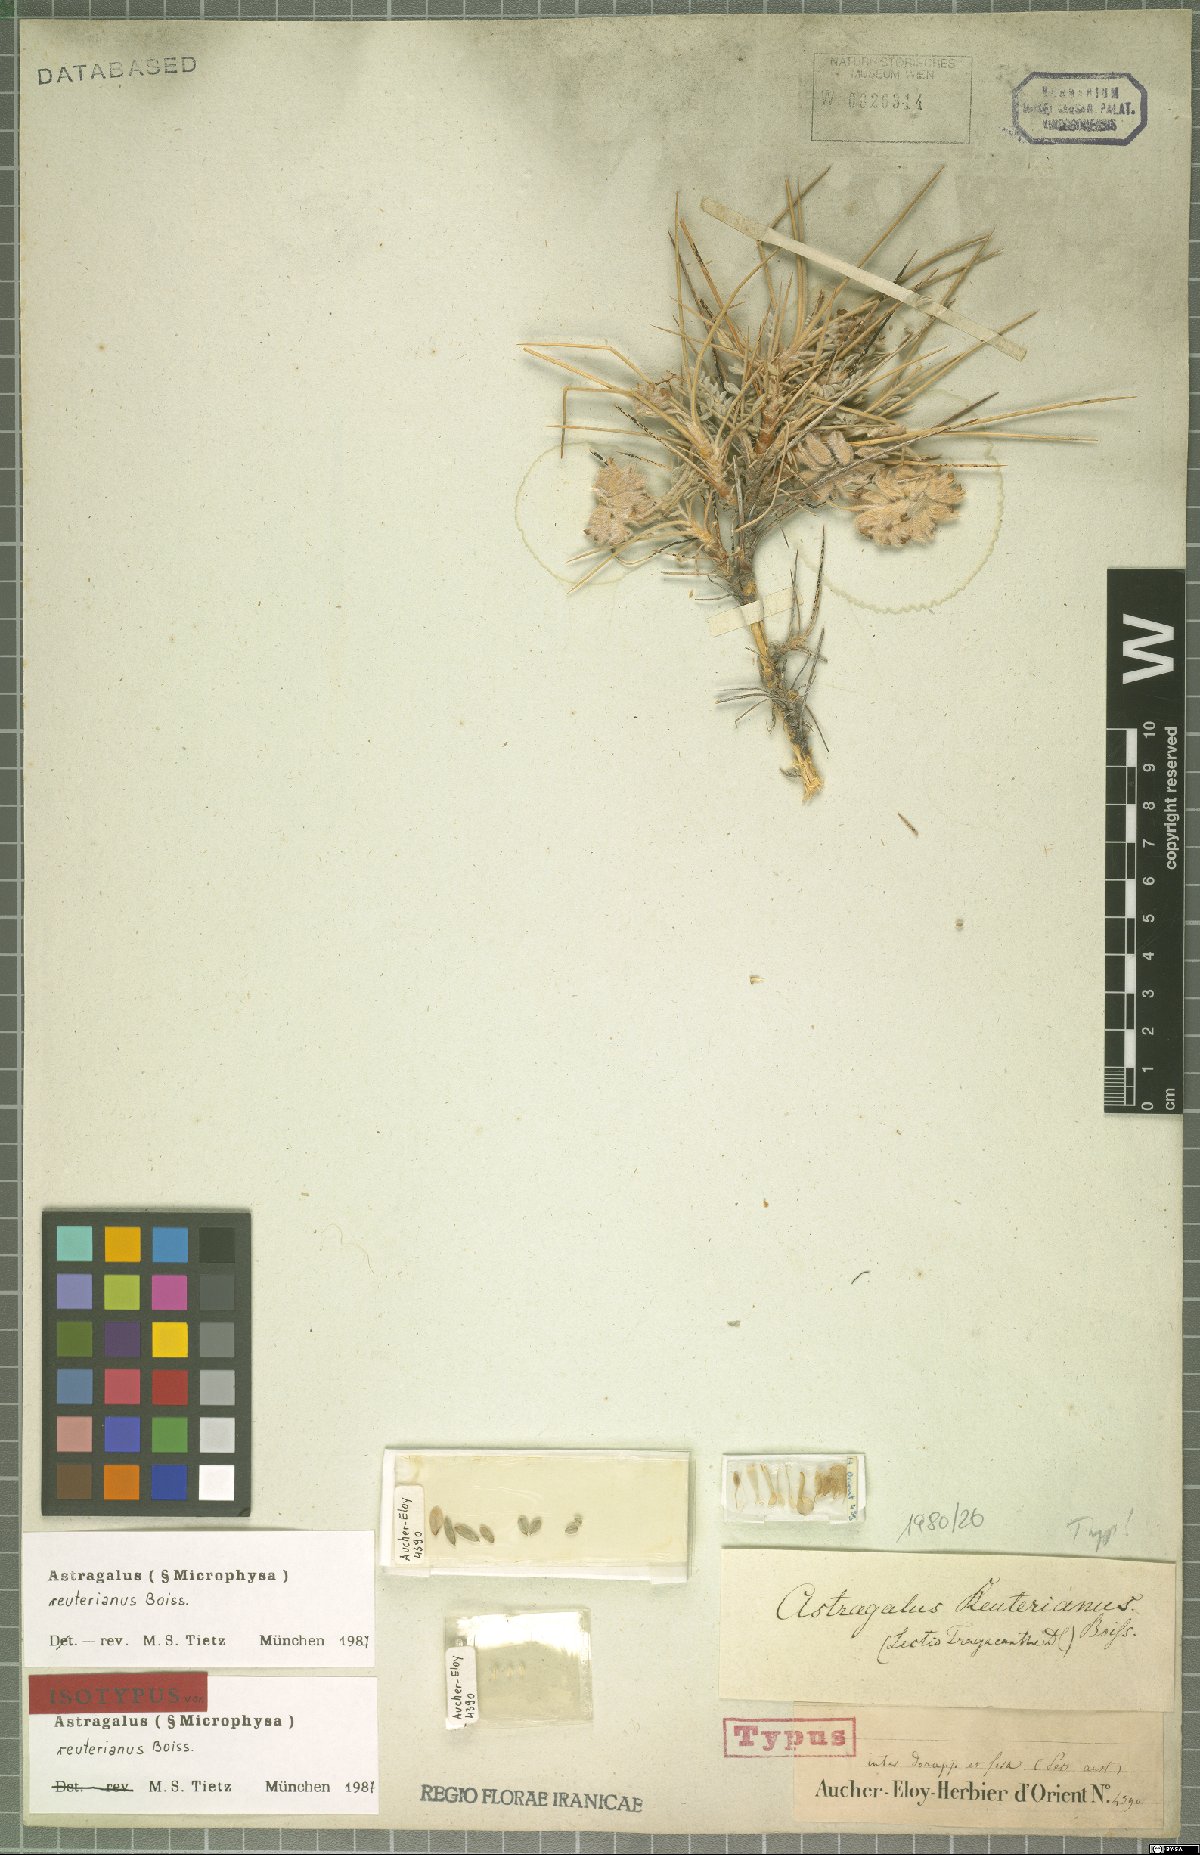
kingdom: Plantae
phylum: Tracheophyta
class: Magnoliopsida
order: Fabales
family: Fabaceae
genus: Astragalus
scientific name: Astragalus reuterianus
